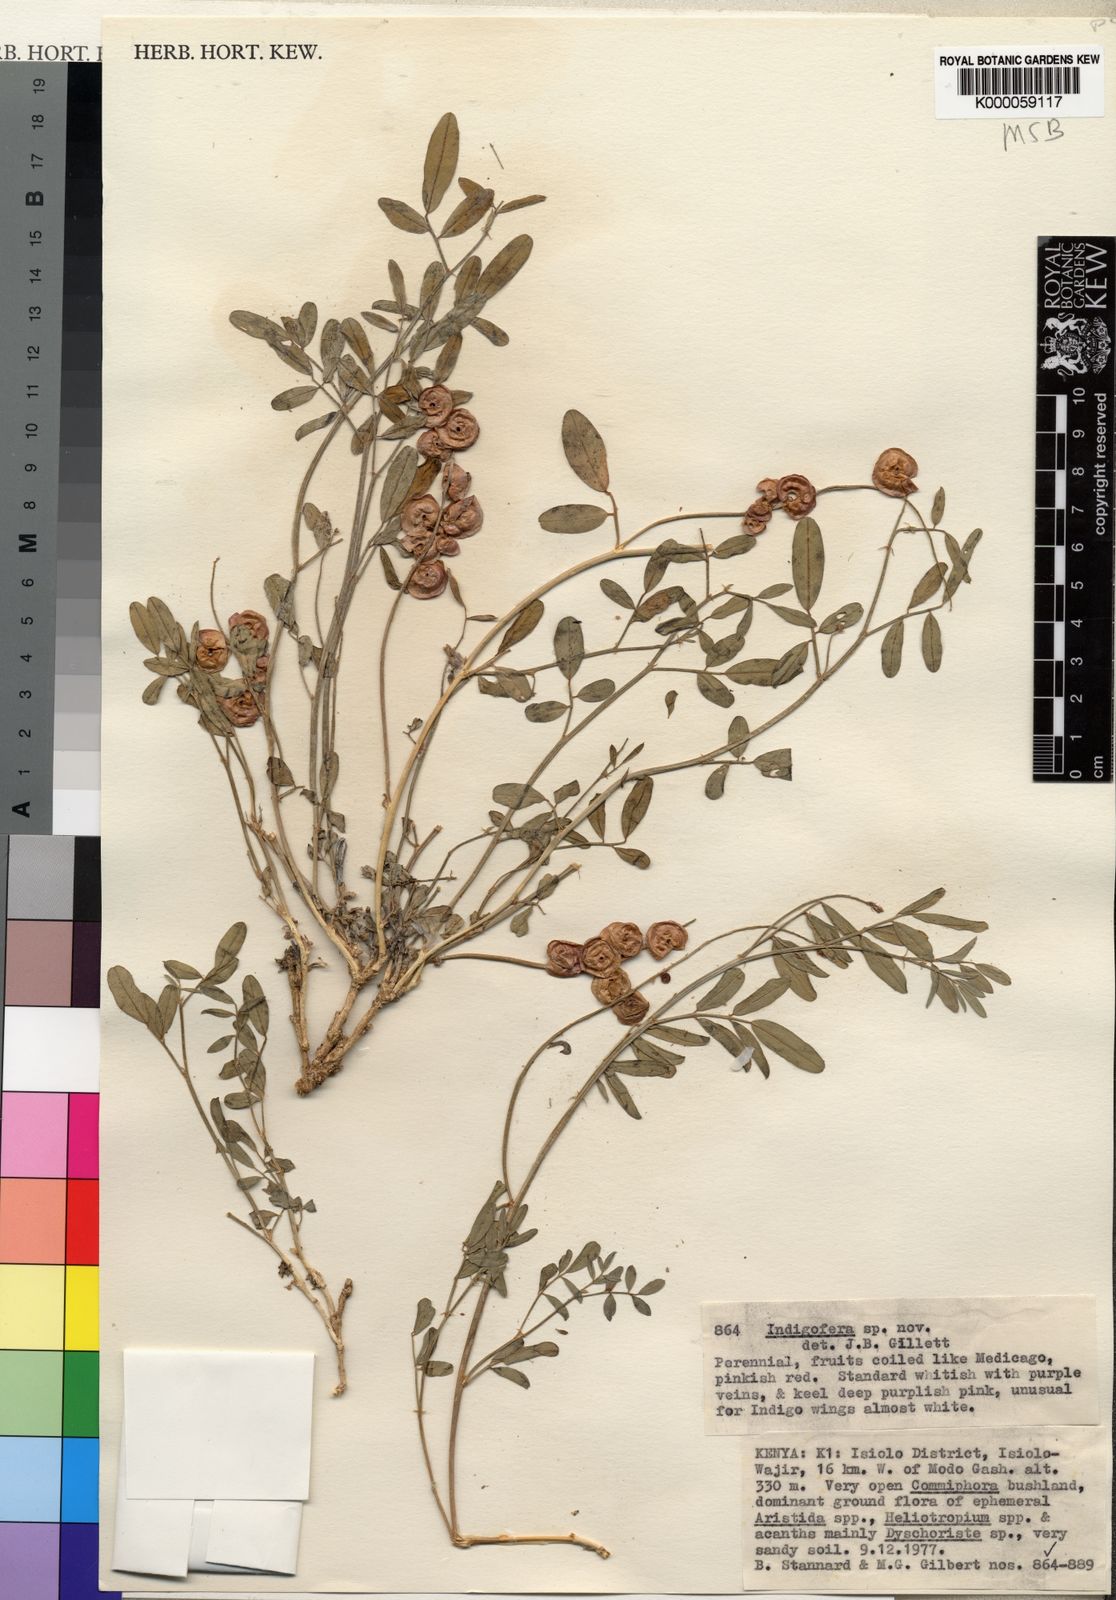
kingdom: Plantae
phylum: Tracheophyta
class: Magnoliopsida
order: Fabales
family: Fabaceae
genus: Indigofera
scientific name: Indigofera platyspira
